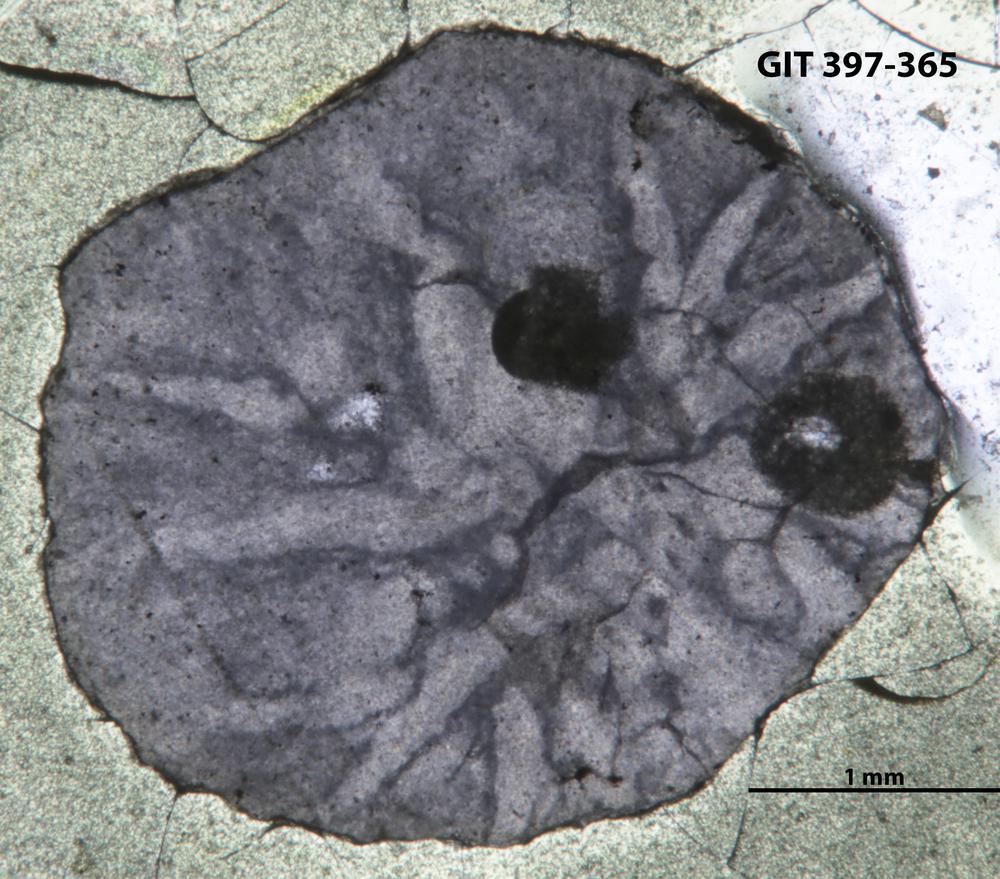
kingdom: Animalia
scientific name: Animalia
